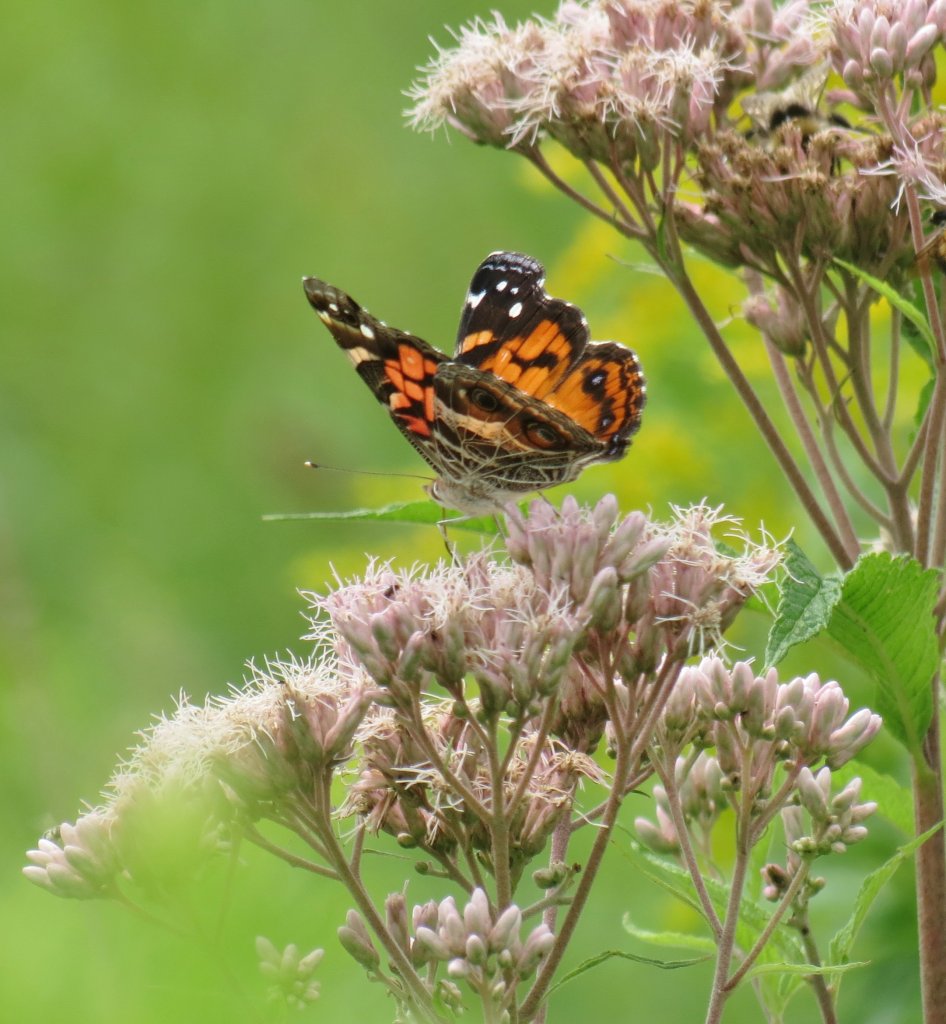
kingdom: Animalia
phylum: Arthropoda
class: Insecta
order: Lepidoptera
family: Nymphalidae
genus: Vanessa
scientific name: Vanessa virginiensis
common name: American Lady
